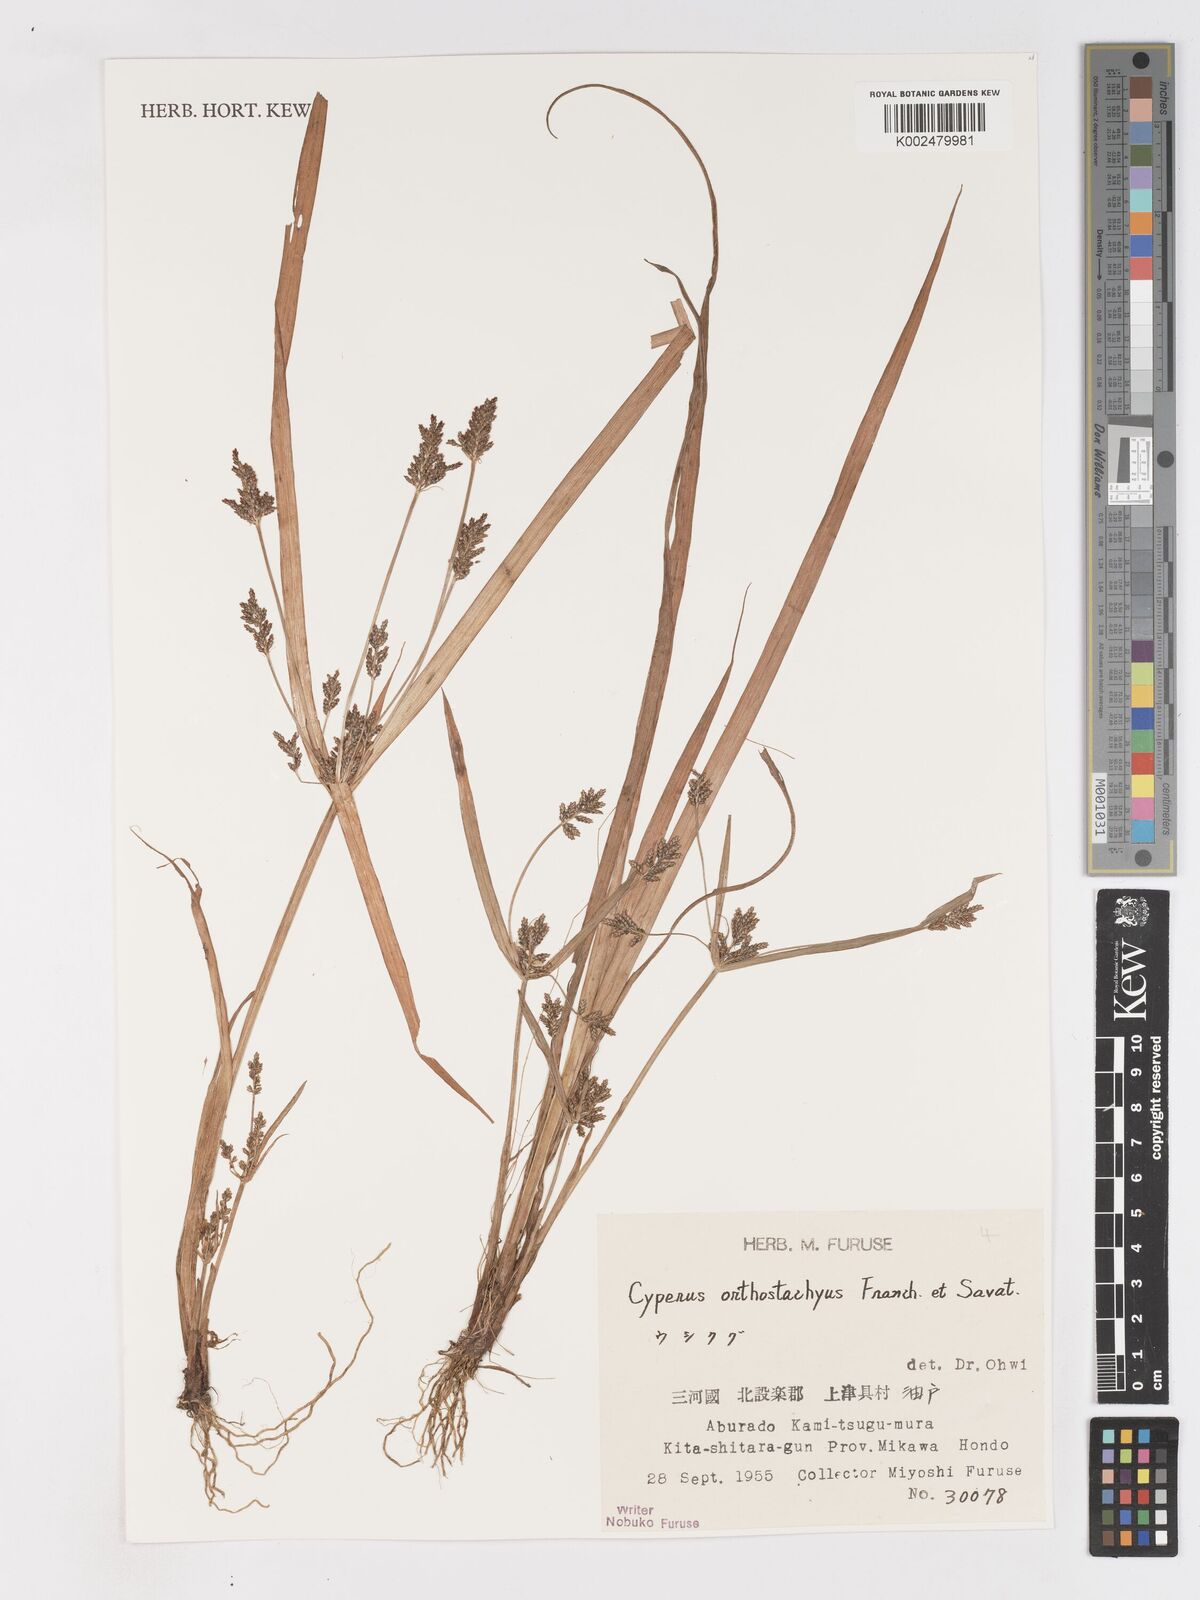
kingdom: Plantae
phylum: Tracheophyta
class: Liliopsida
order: Poales
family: Cyperaceae
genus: Cyperus
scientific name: Cyperus orthostachyus
